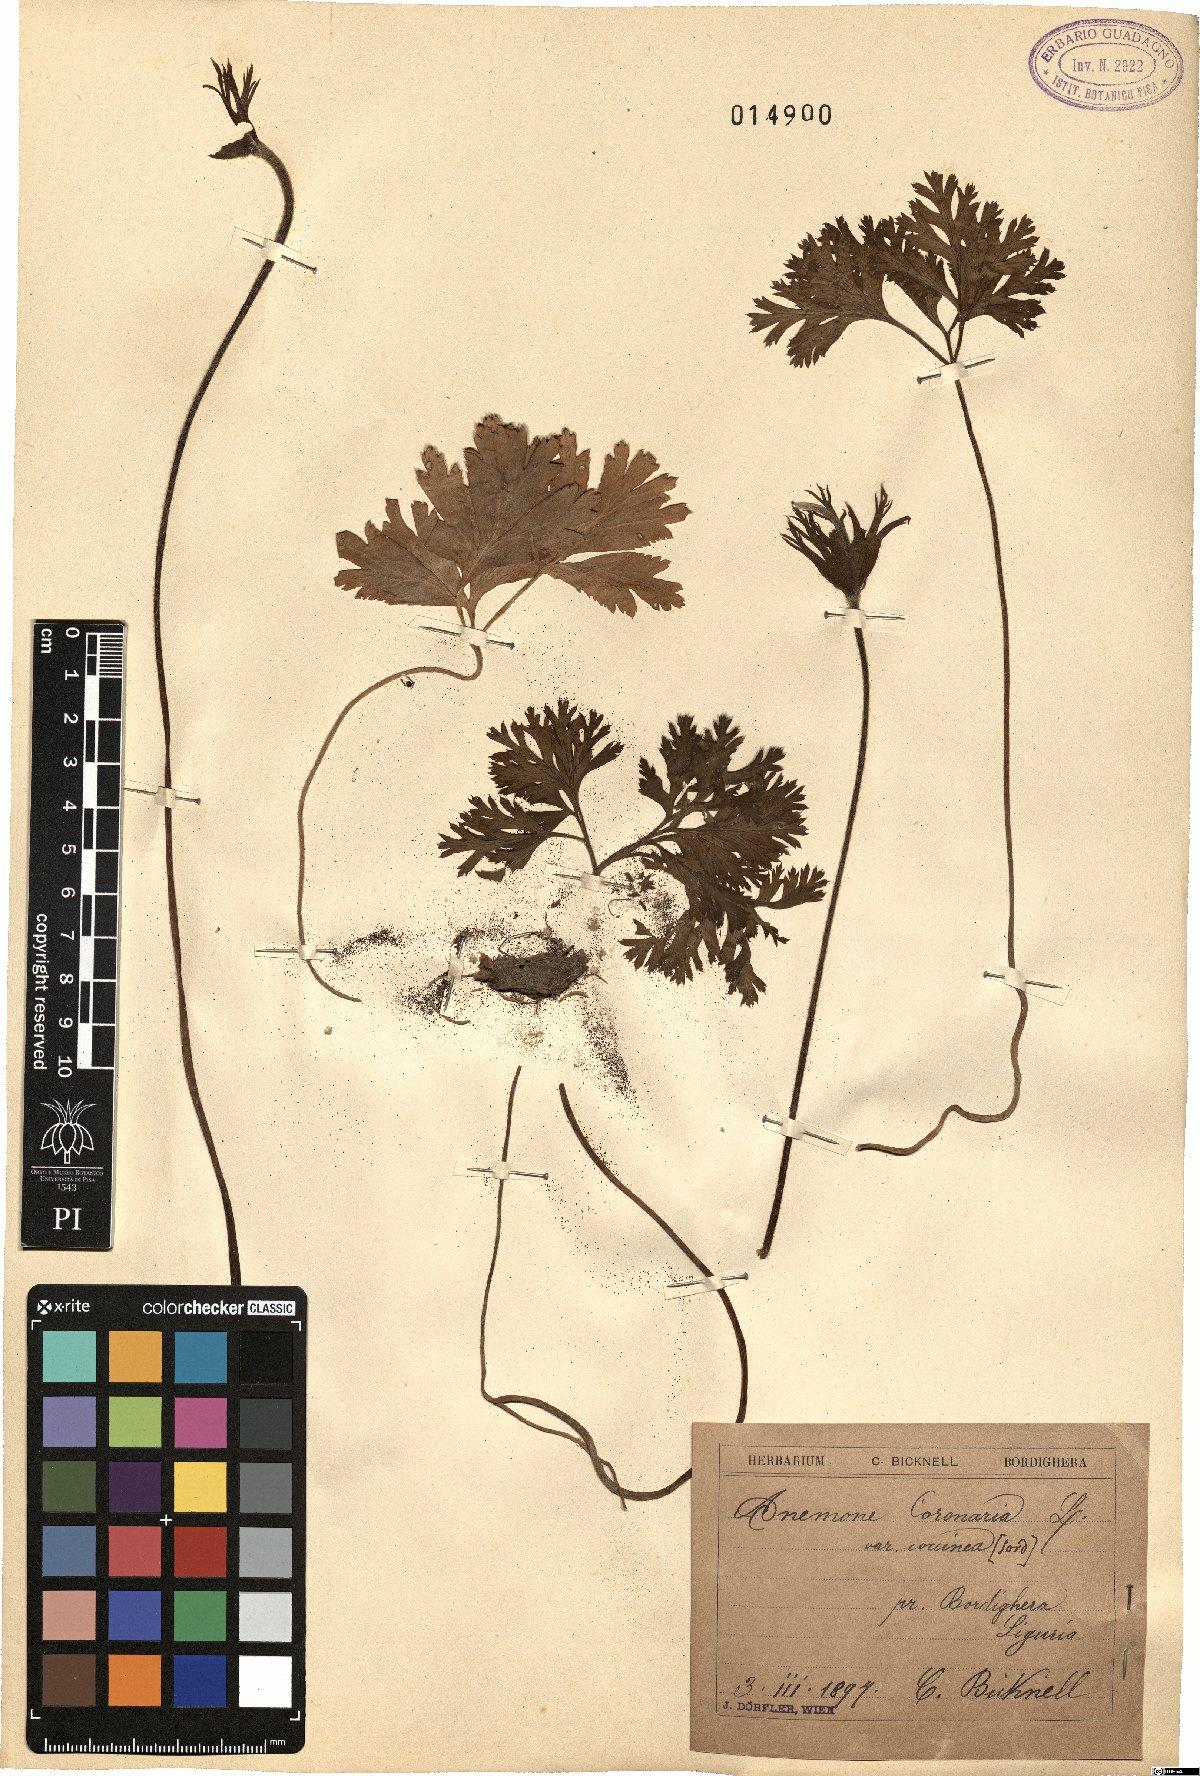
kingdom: Plantae
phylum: Tracheophyta
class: Magnoliopsida
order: Ranunculales
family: Ranunculaceae
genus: Anemone
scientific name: Anemone coronaria
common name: Poppy anemone
